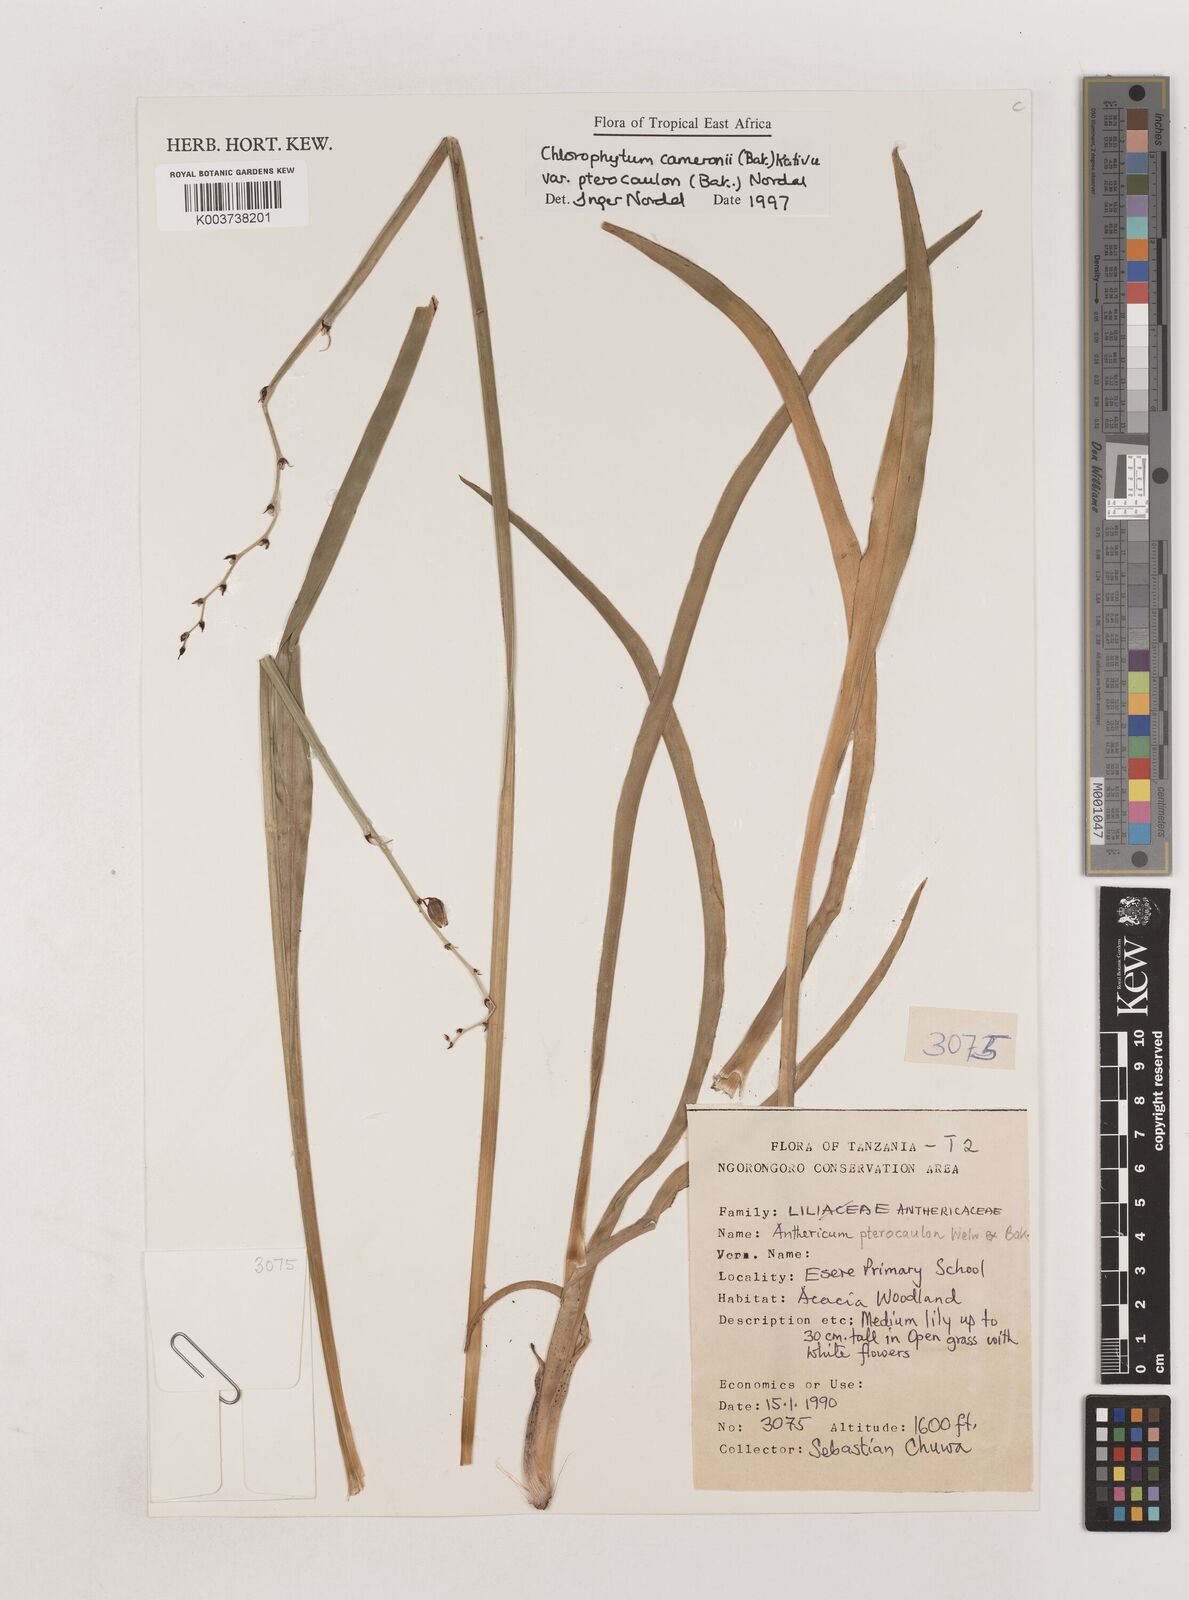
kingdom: Plantae
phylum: Tracheophyta
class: Liliopsida
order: Asparagales
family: Asparagaceae
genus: Chlorophytum
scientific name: Chlorophytum cameronii
